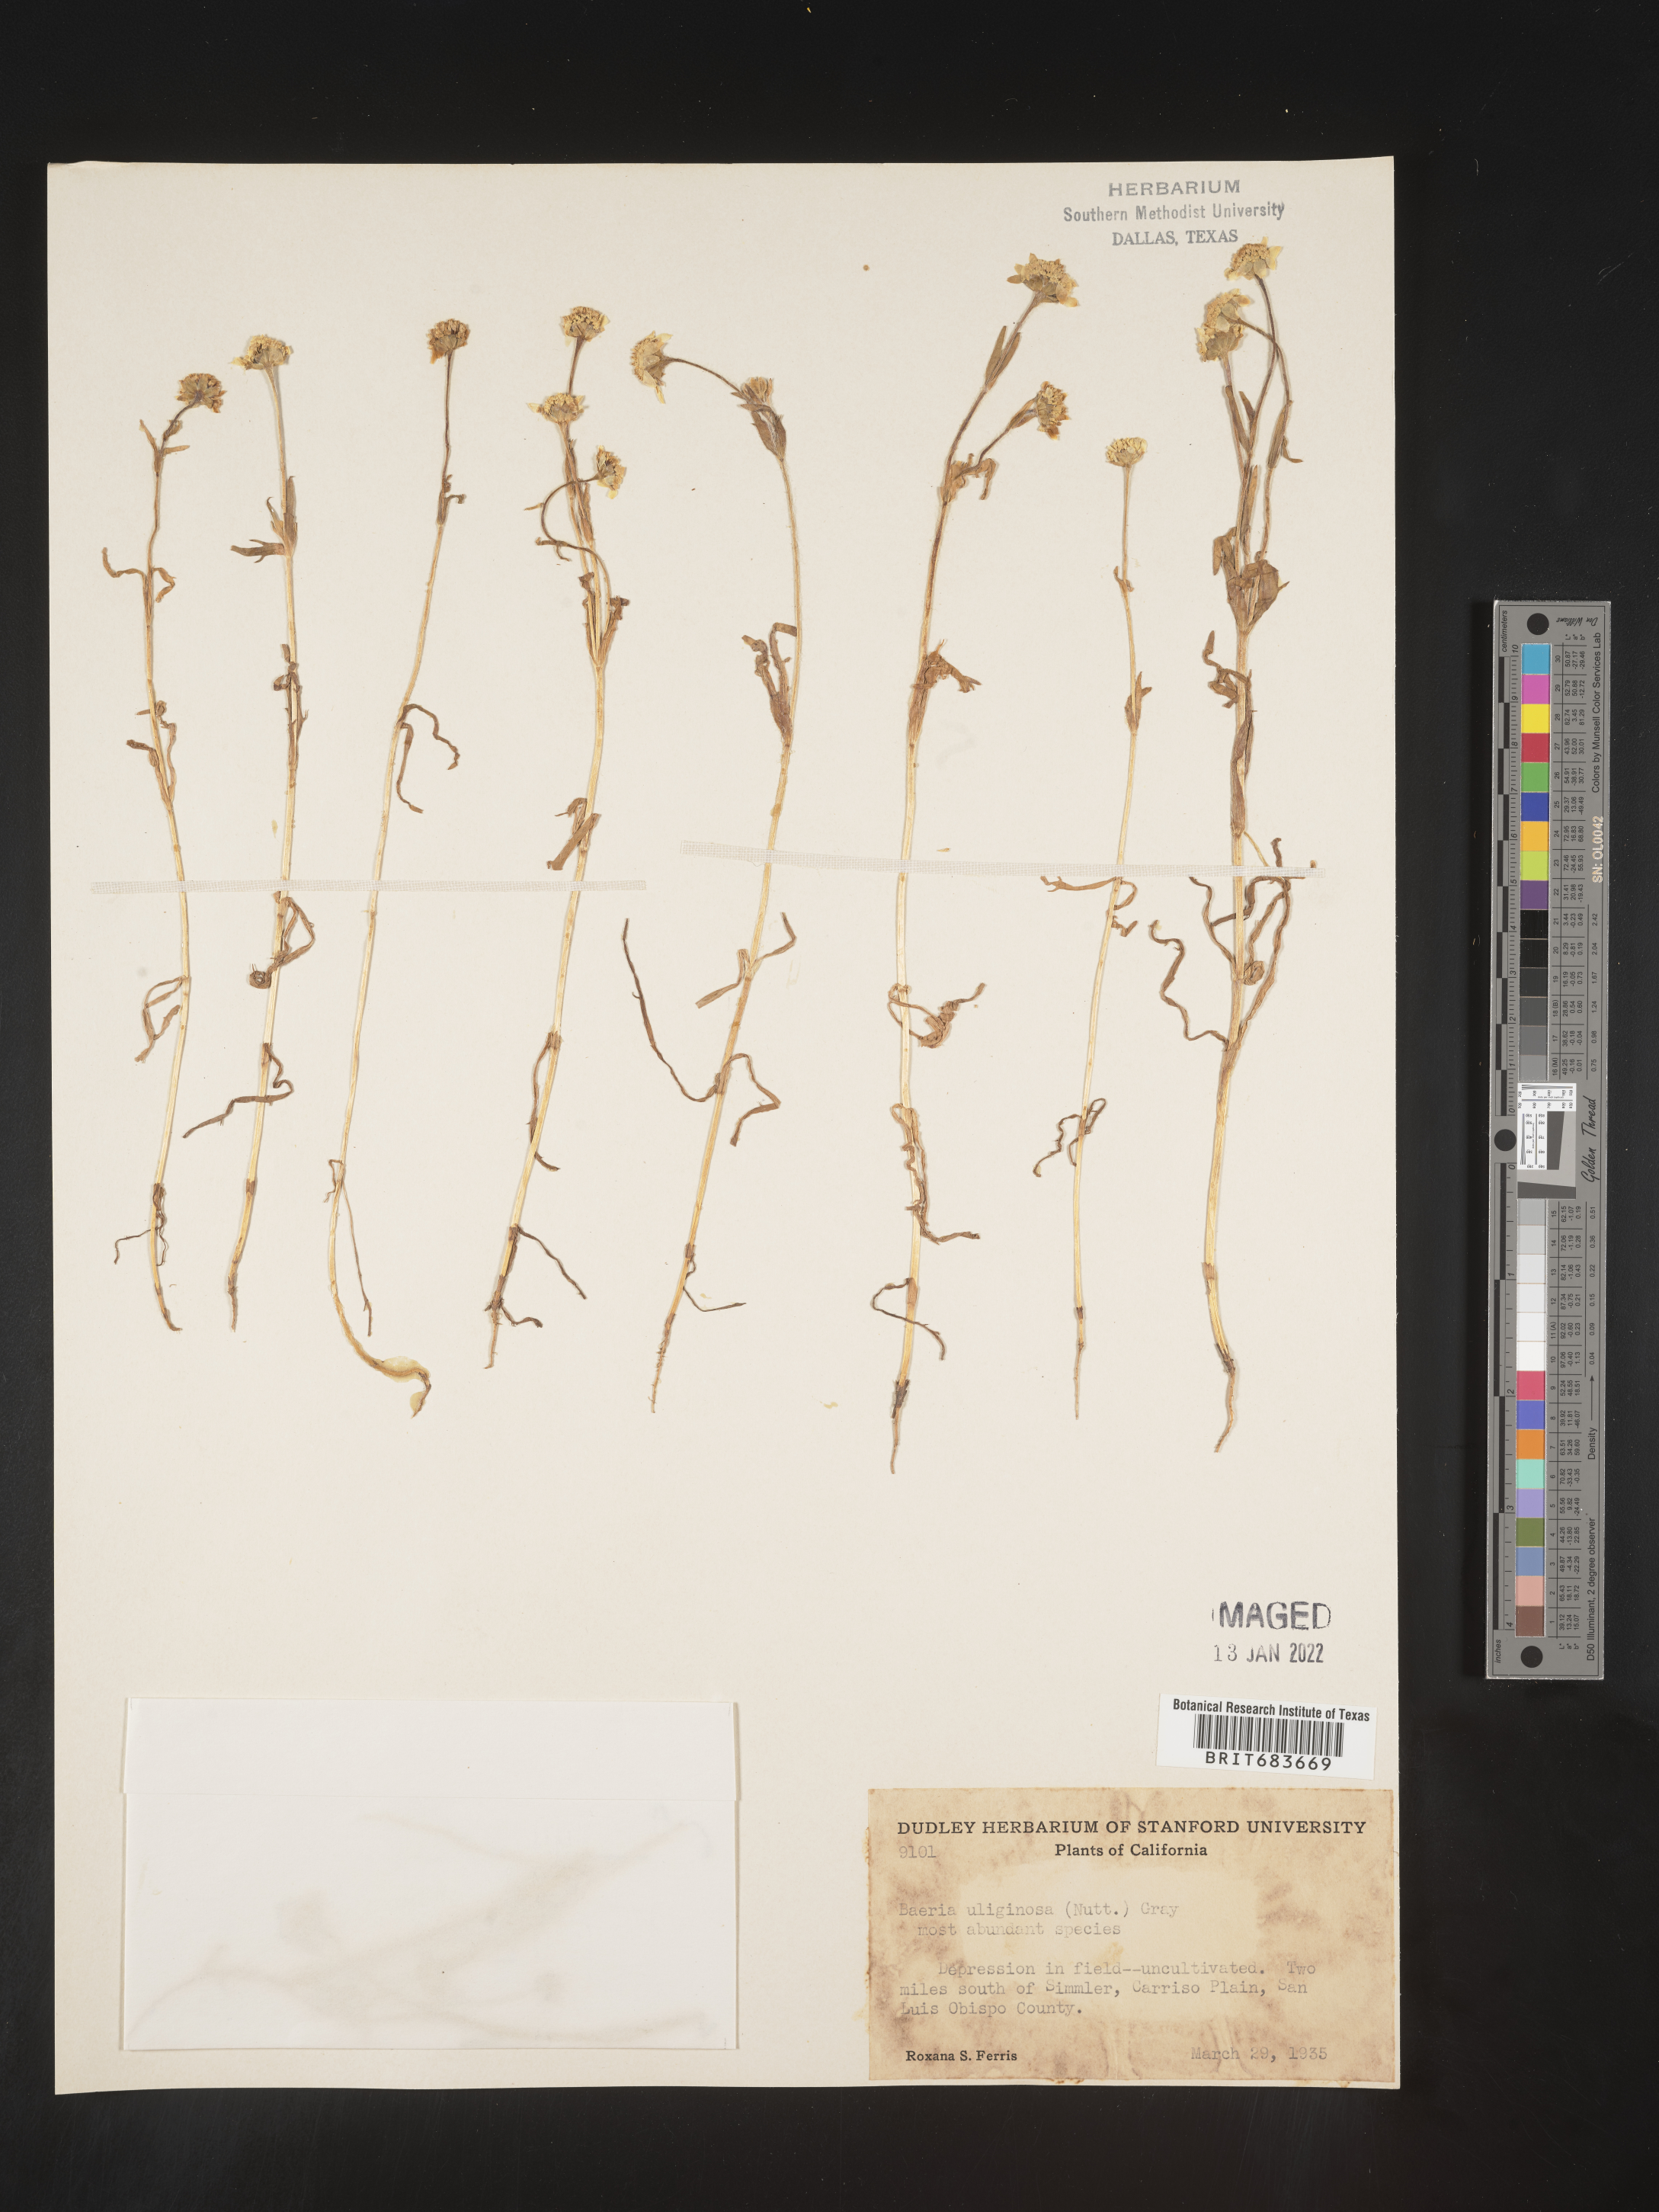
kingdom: Plantae
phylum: Tracheophyta
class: Magnoliopsida
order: Asterales
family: Asteraceae
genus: Lasthenia
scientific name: Lasthenia
